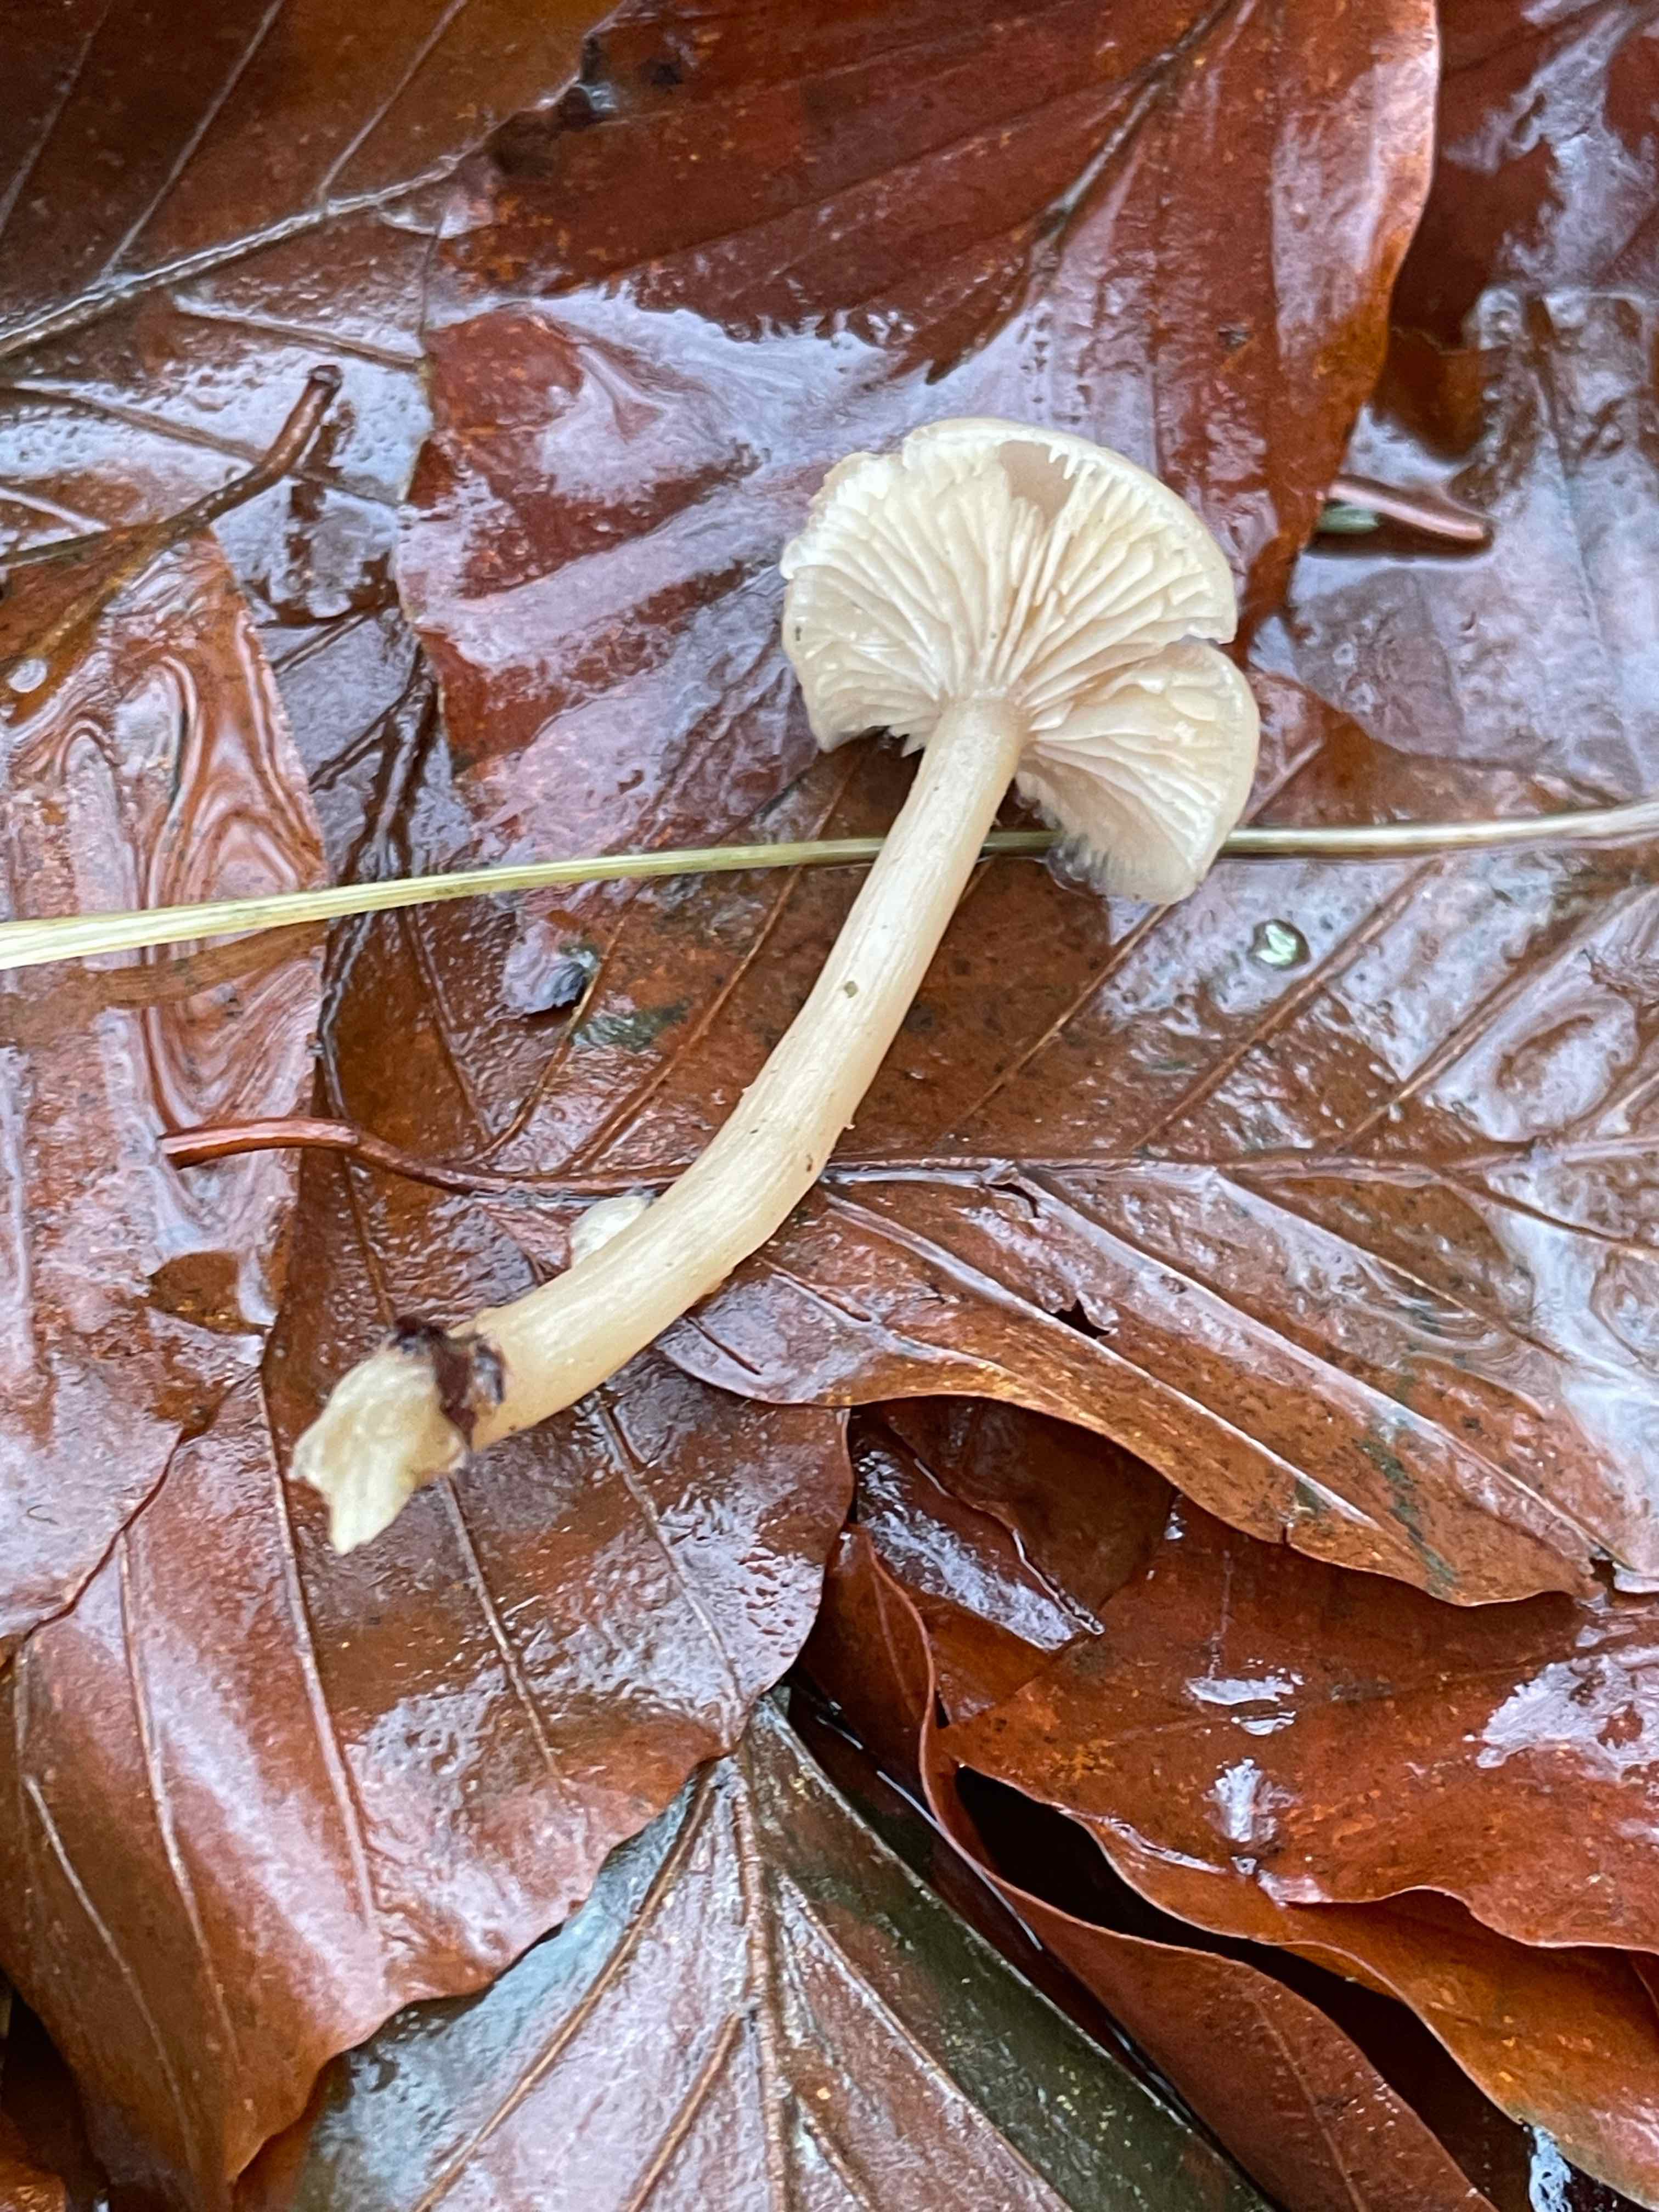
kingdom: Fungi
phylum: Basidiomycota
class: Agaricomycetes
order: Agaricales
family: Tricholomataceae
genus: Clitocybe
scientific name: Clitocybe fragrans
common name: vellugtende tragthat
